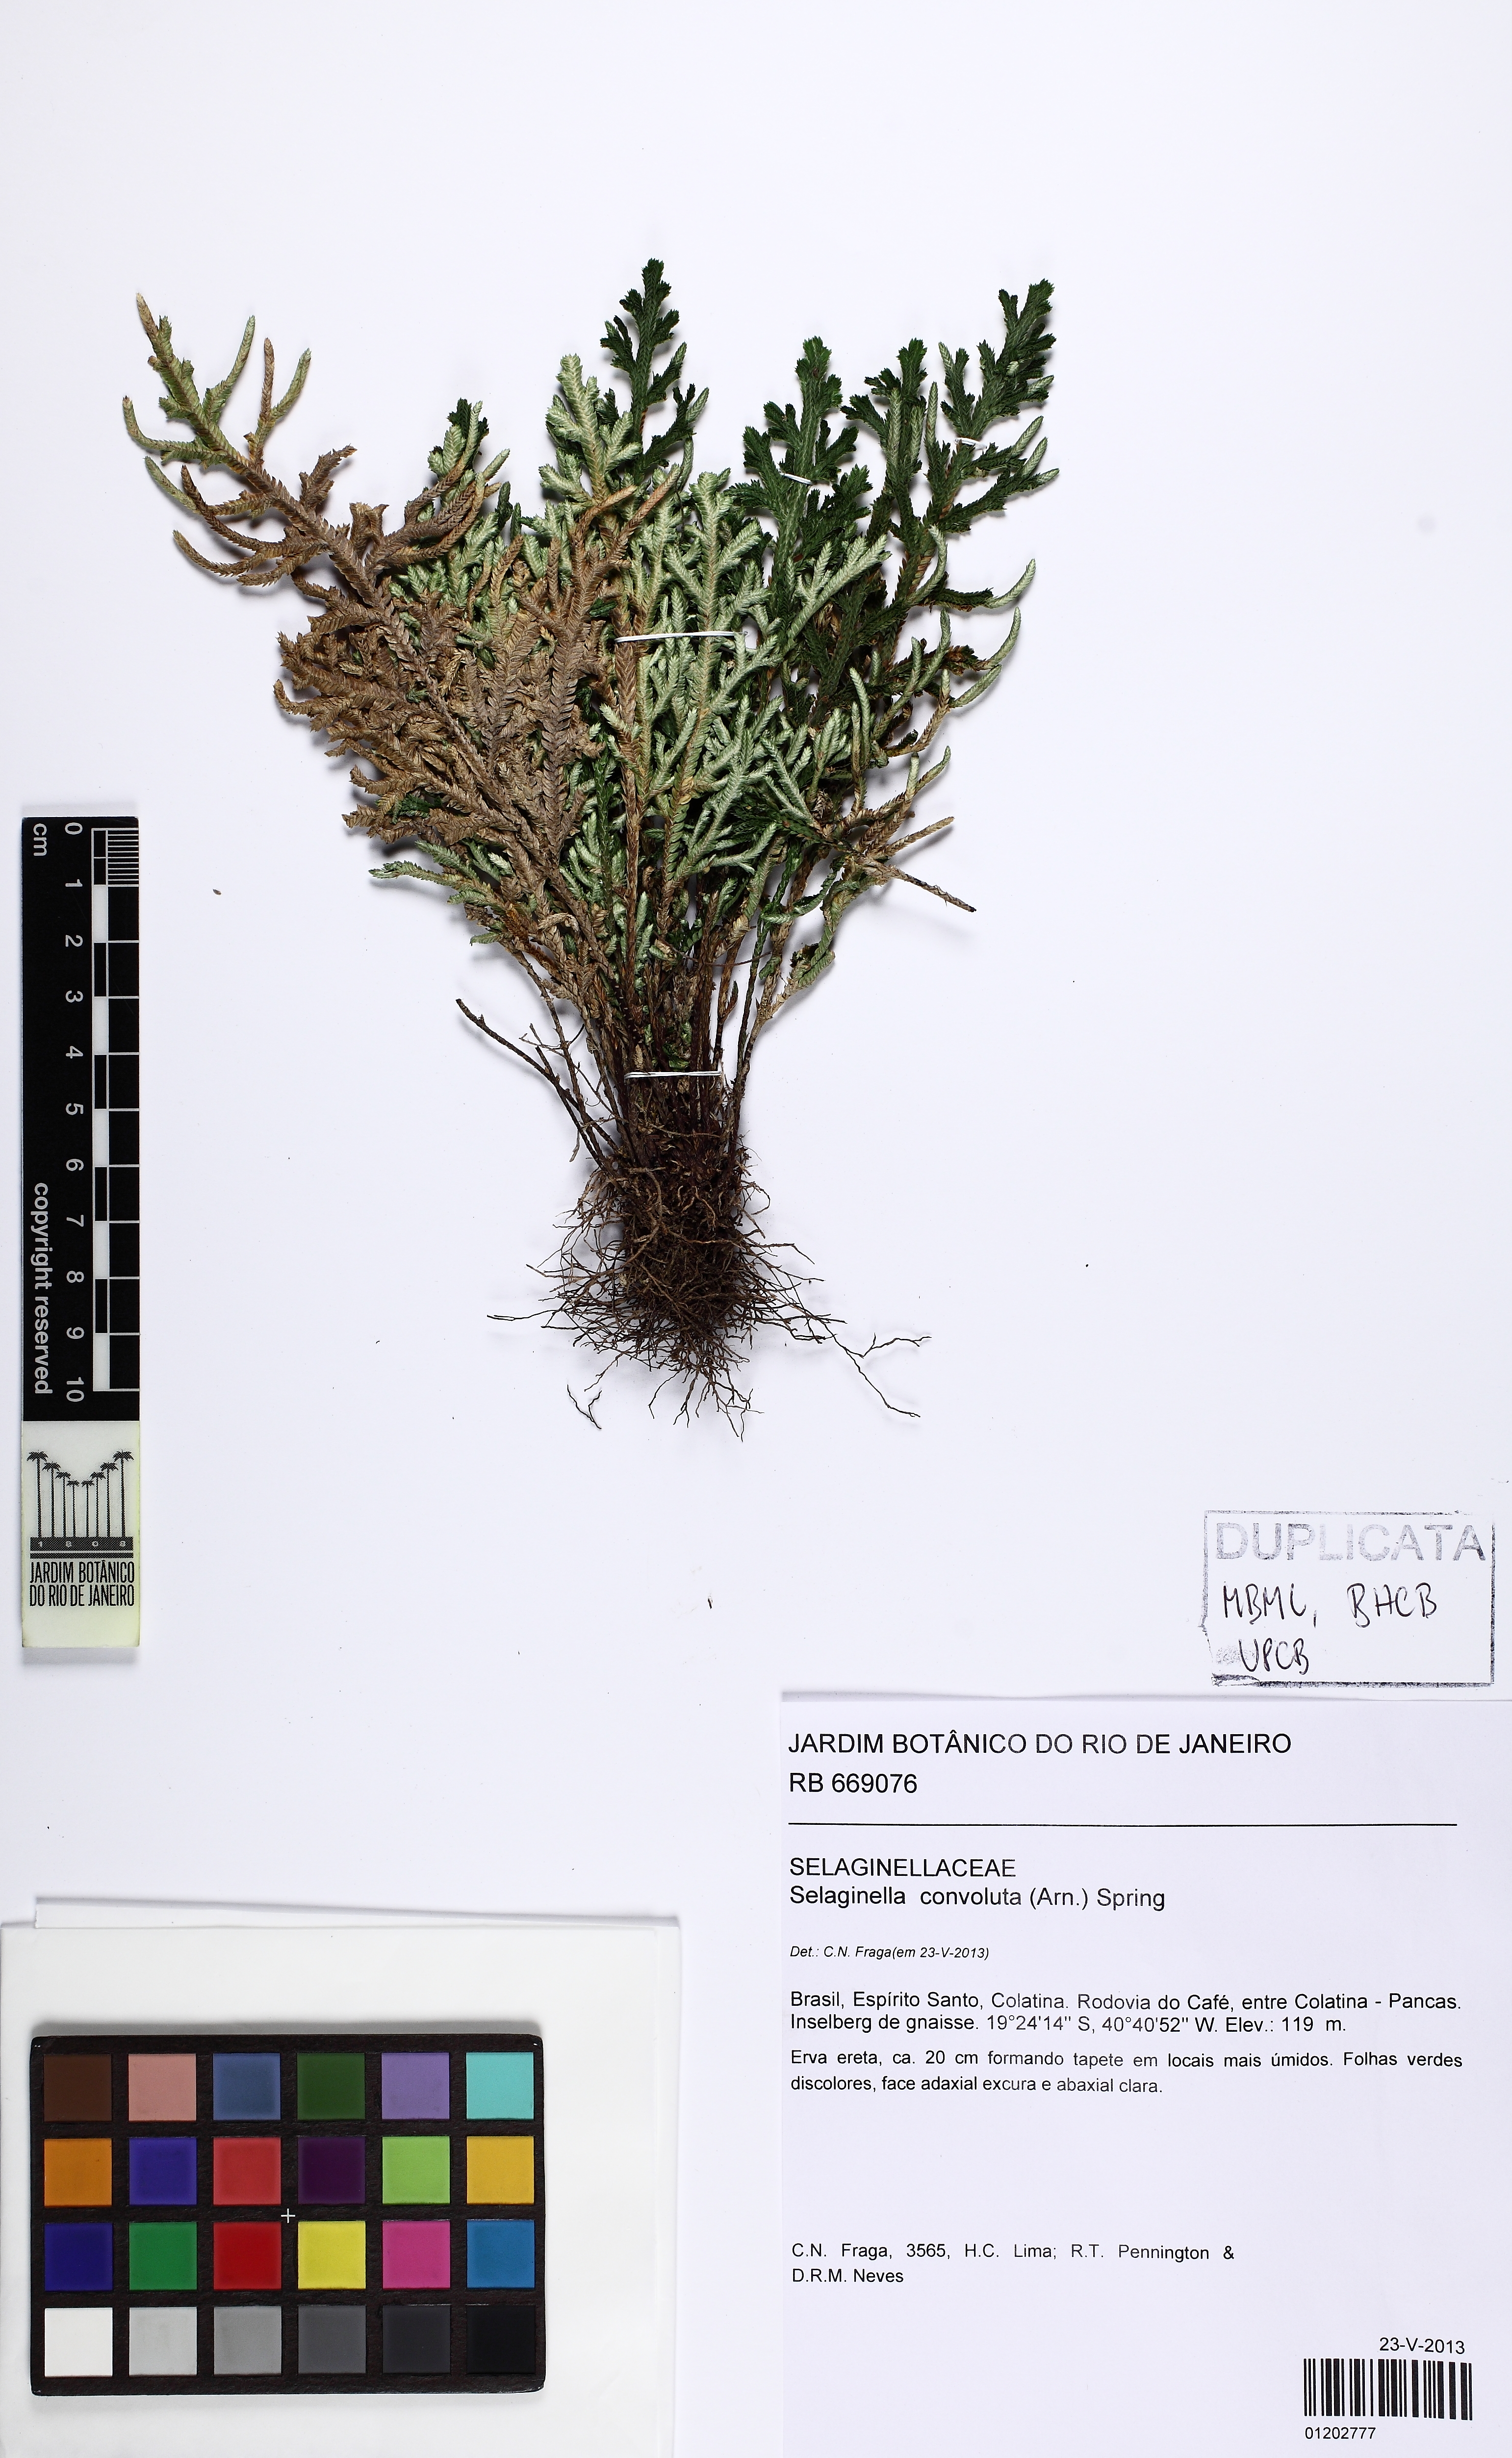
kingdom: Plantae
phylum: Tracheophyta
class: Lycopodiopsida
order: Selaginellales
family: Selaginellaceae
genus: Selaginella
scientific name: Selaginella convoluta
